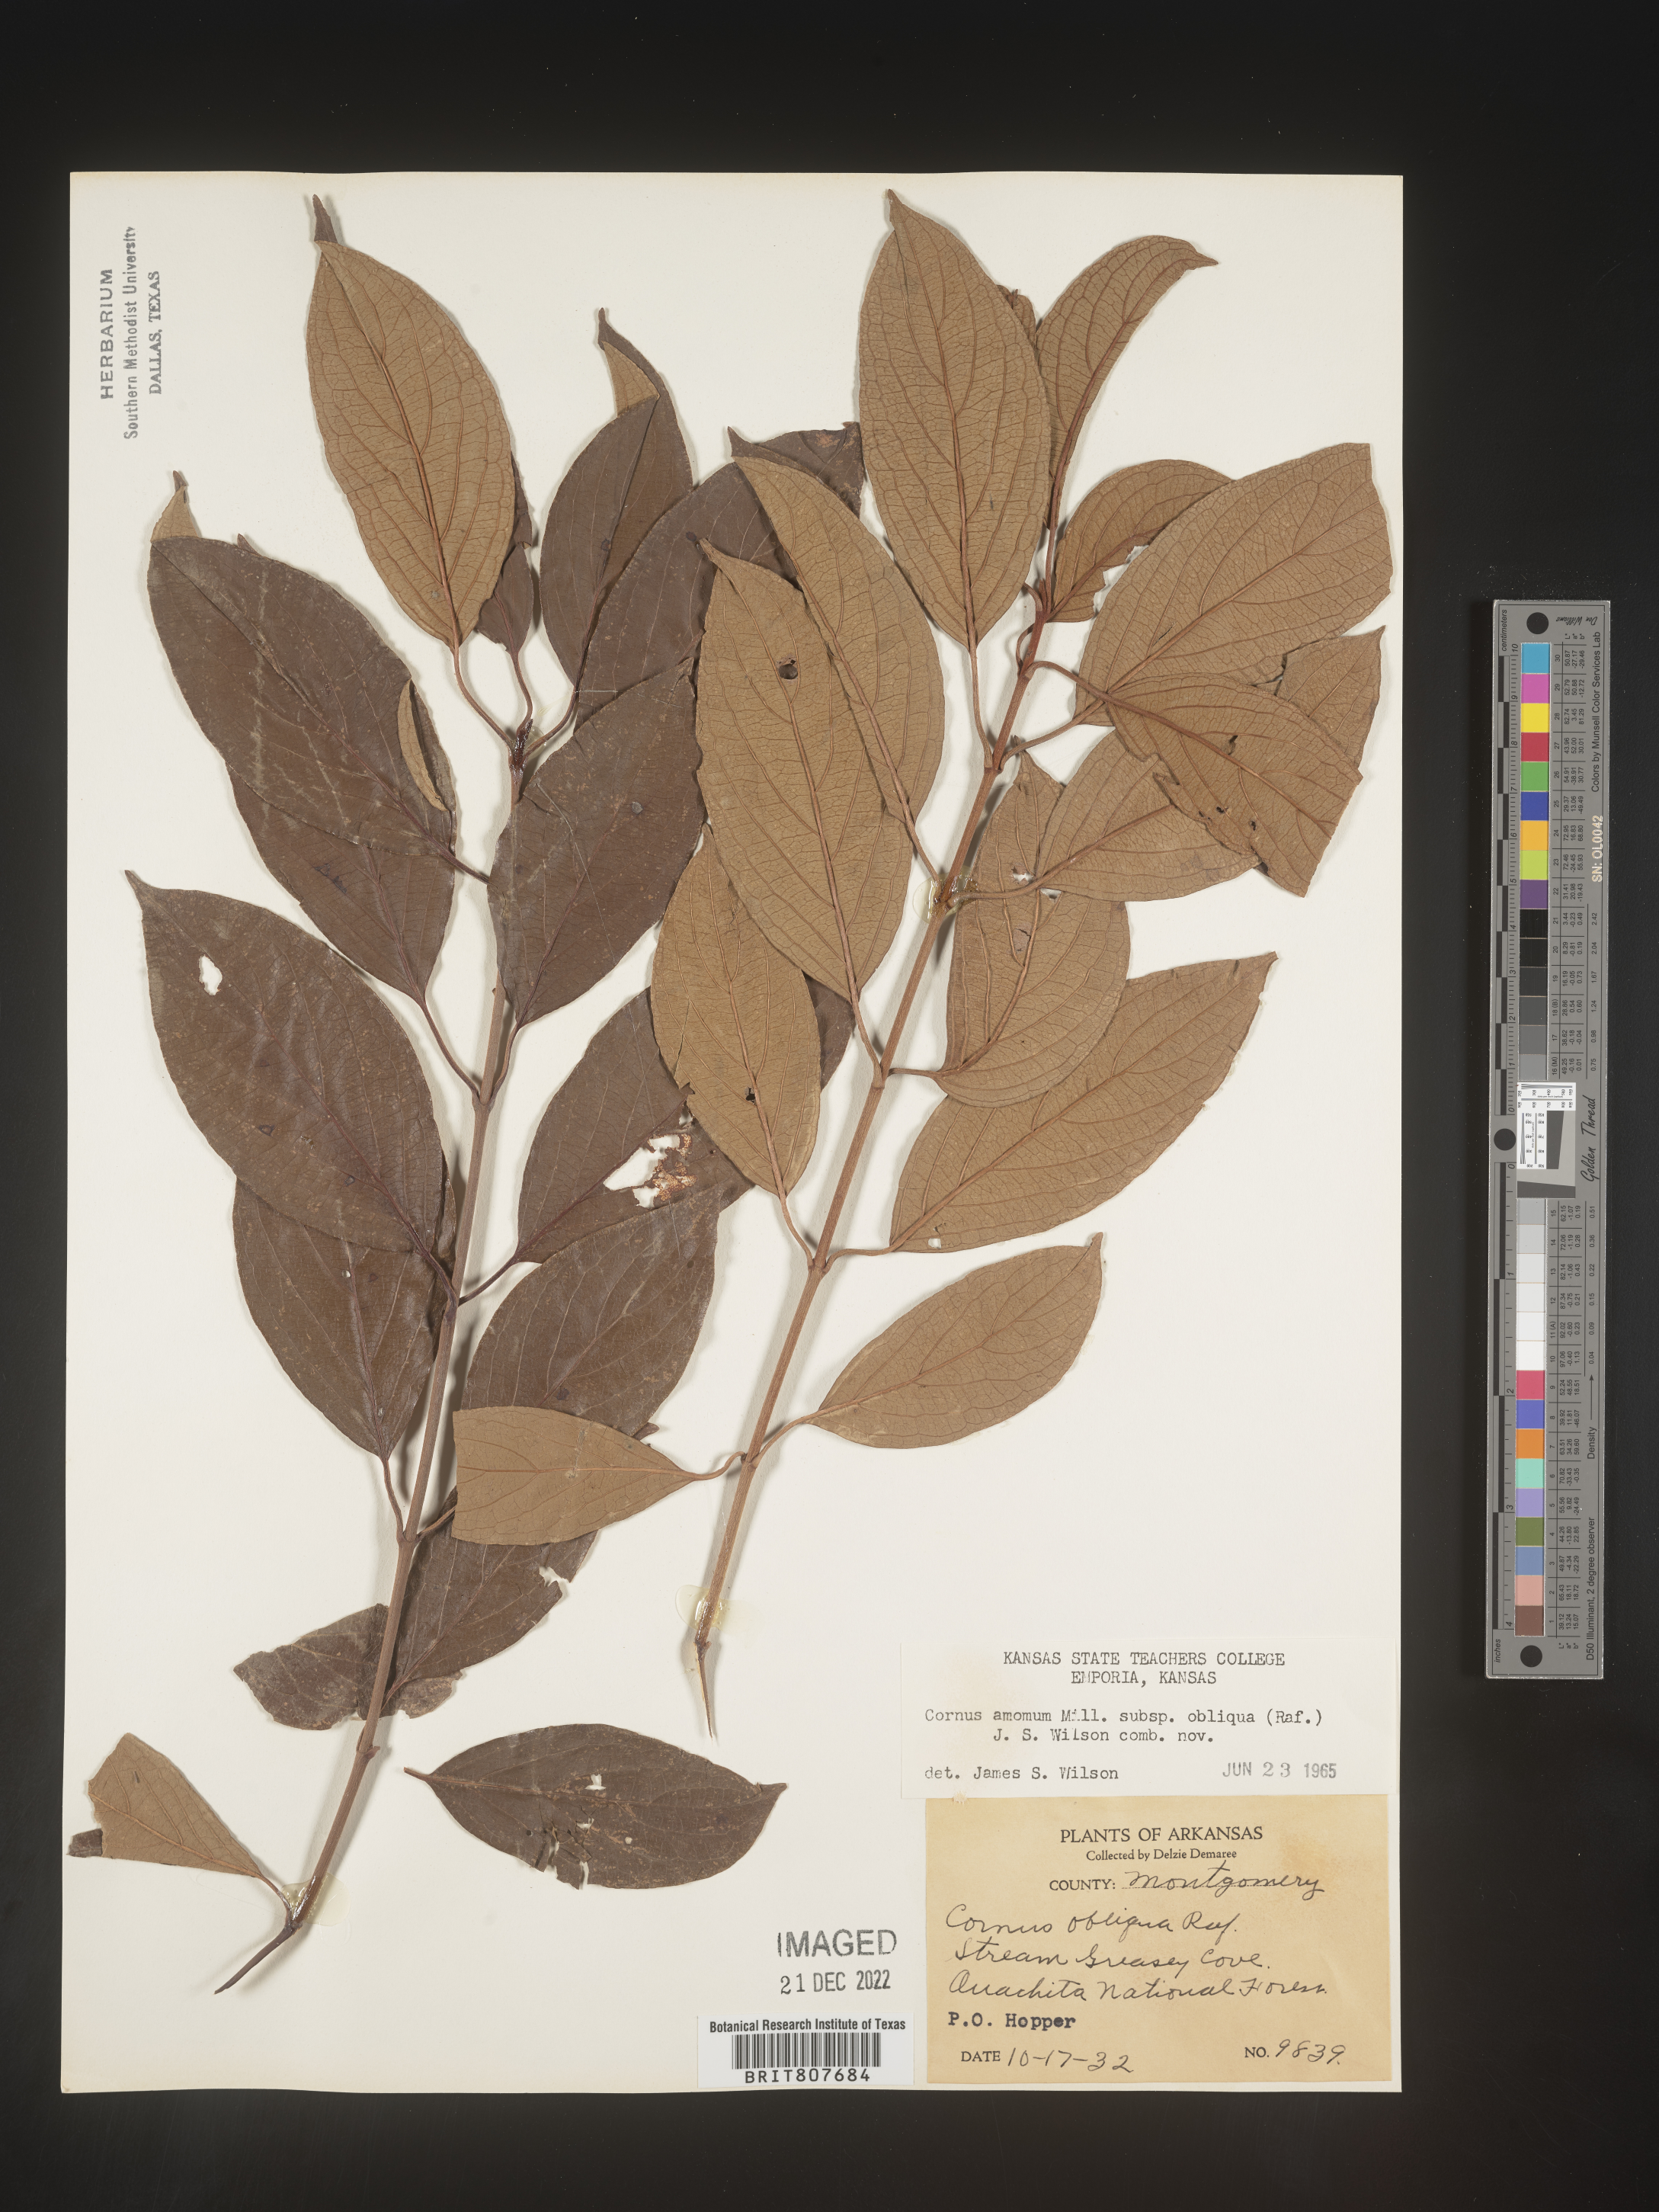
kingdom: Plantae
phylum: Tracheophyta
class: Magnoliopsida
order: Cornales
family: Cornaceae
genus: Cornus
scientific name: Cornus obliqua
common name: Pale dogwood
